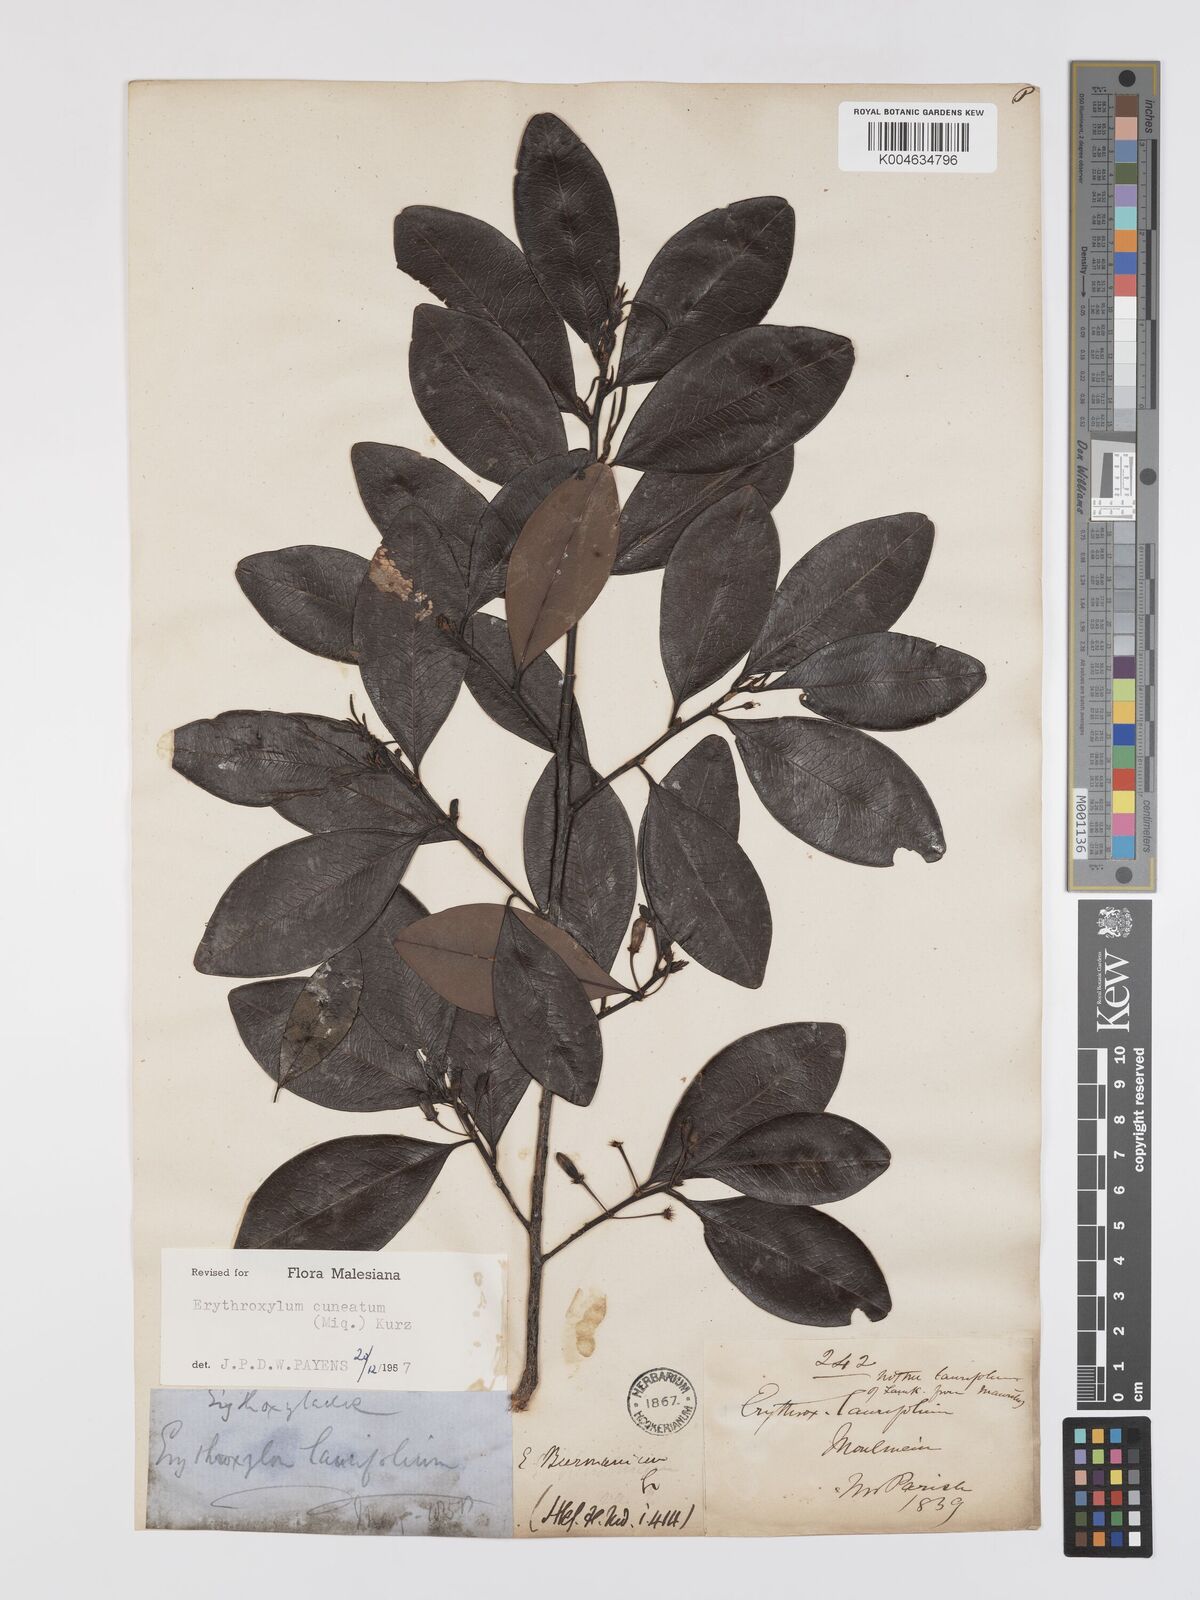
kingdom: Plantae
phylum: Tracheophyta
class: Magnoliopsida
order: Malpighiales
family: Erythroxylaceae
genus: Erythroxylum
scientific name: Erythroxylum cuneatum
